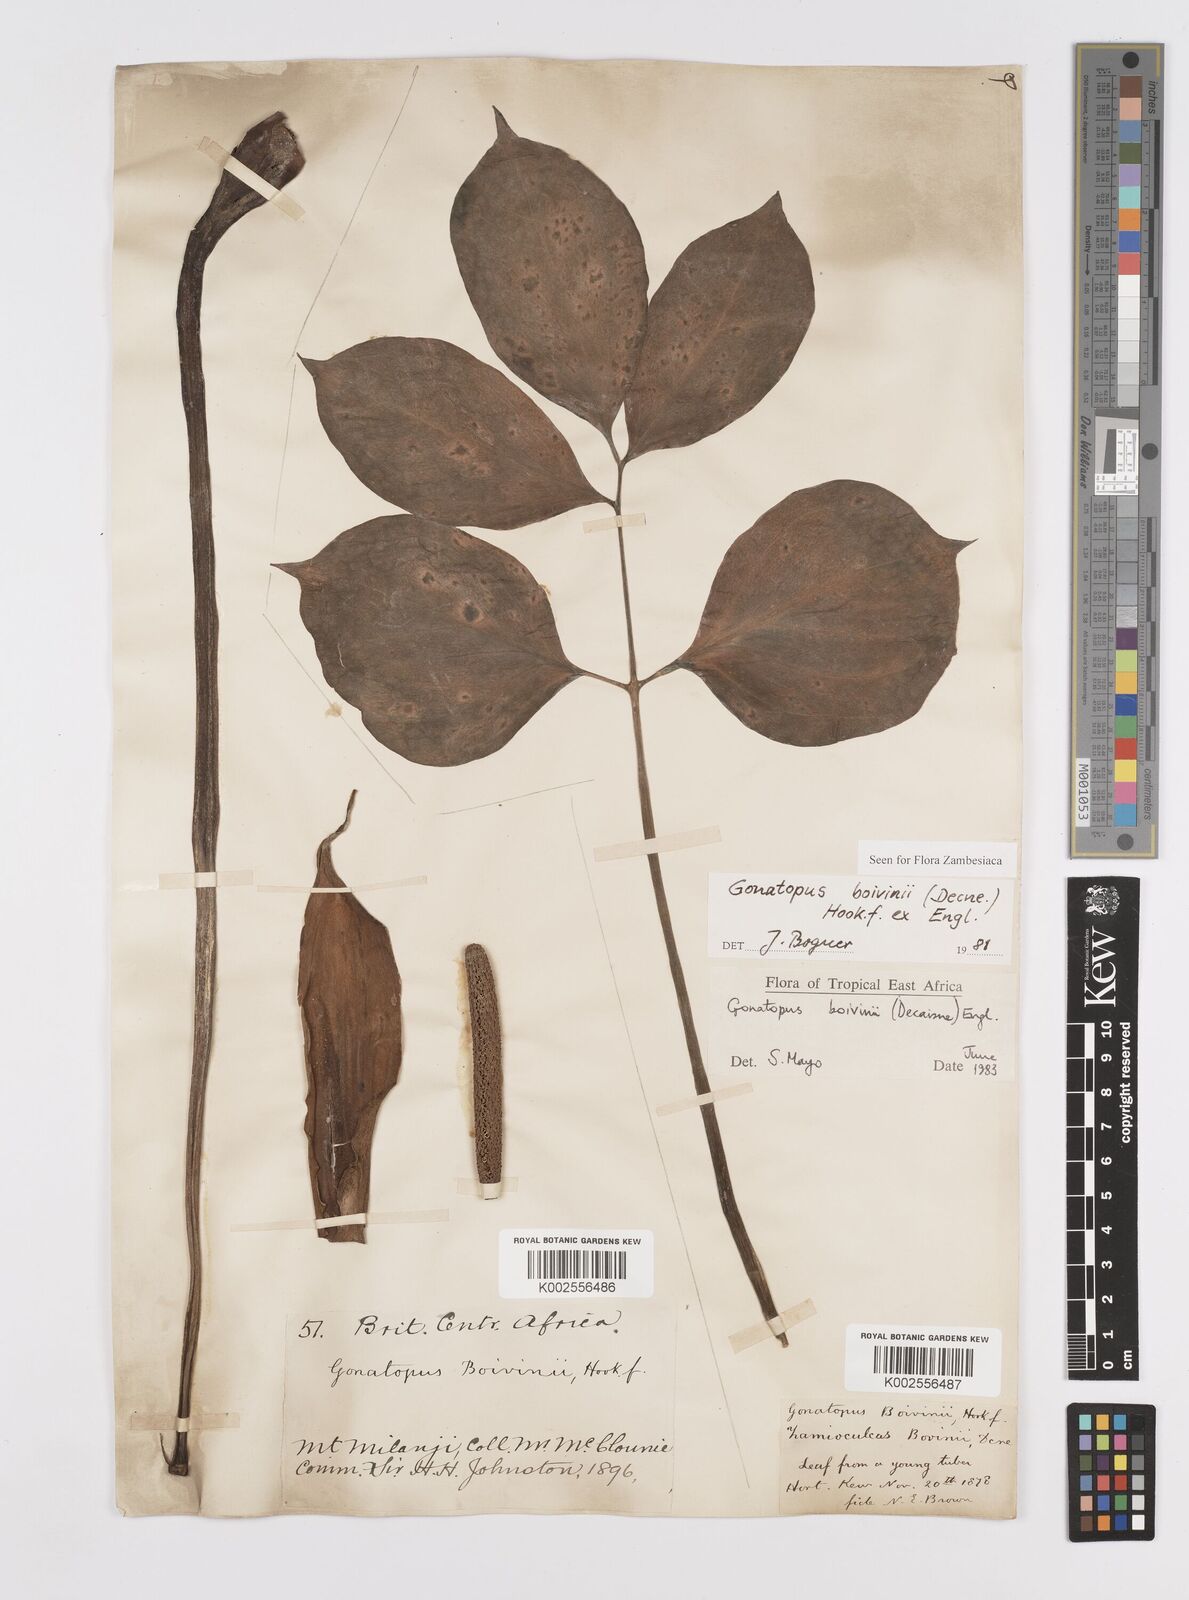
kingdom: Plantae
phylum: Tracheophyta
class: Liliopsida
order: Alismatales
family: Araceae
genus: Gonatopus
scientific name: Gonatopus boivinii
